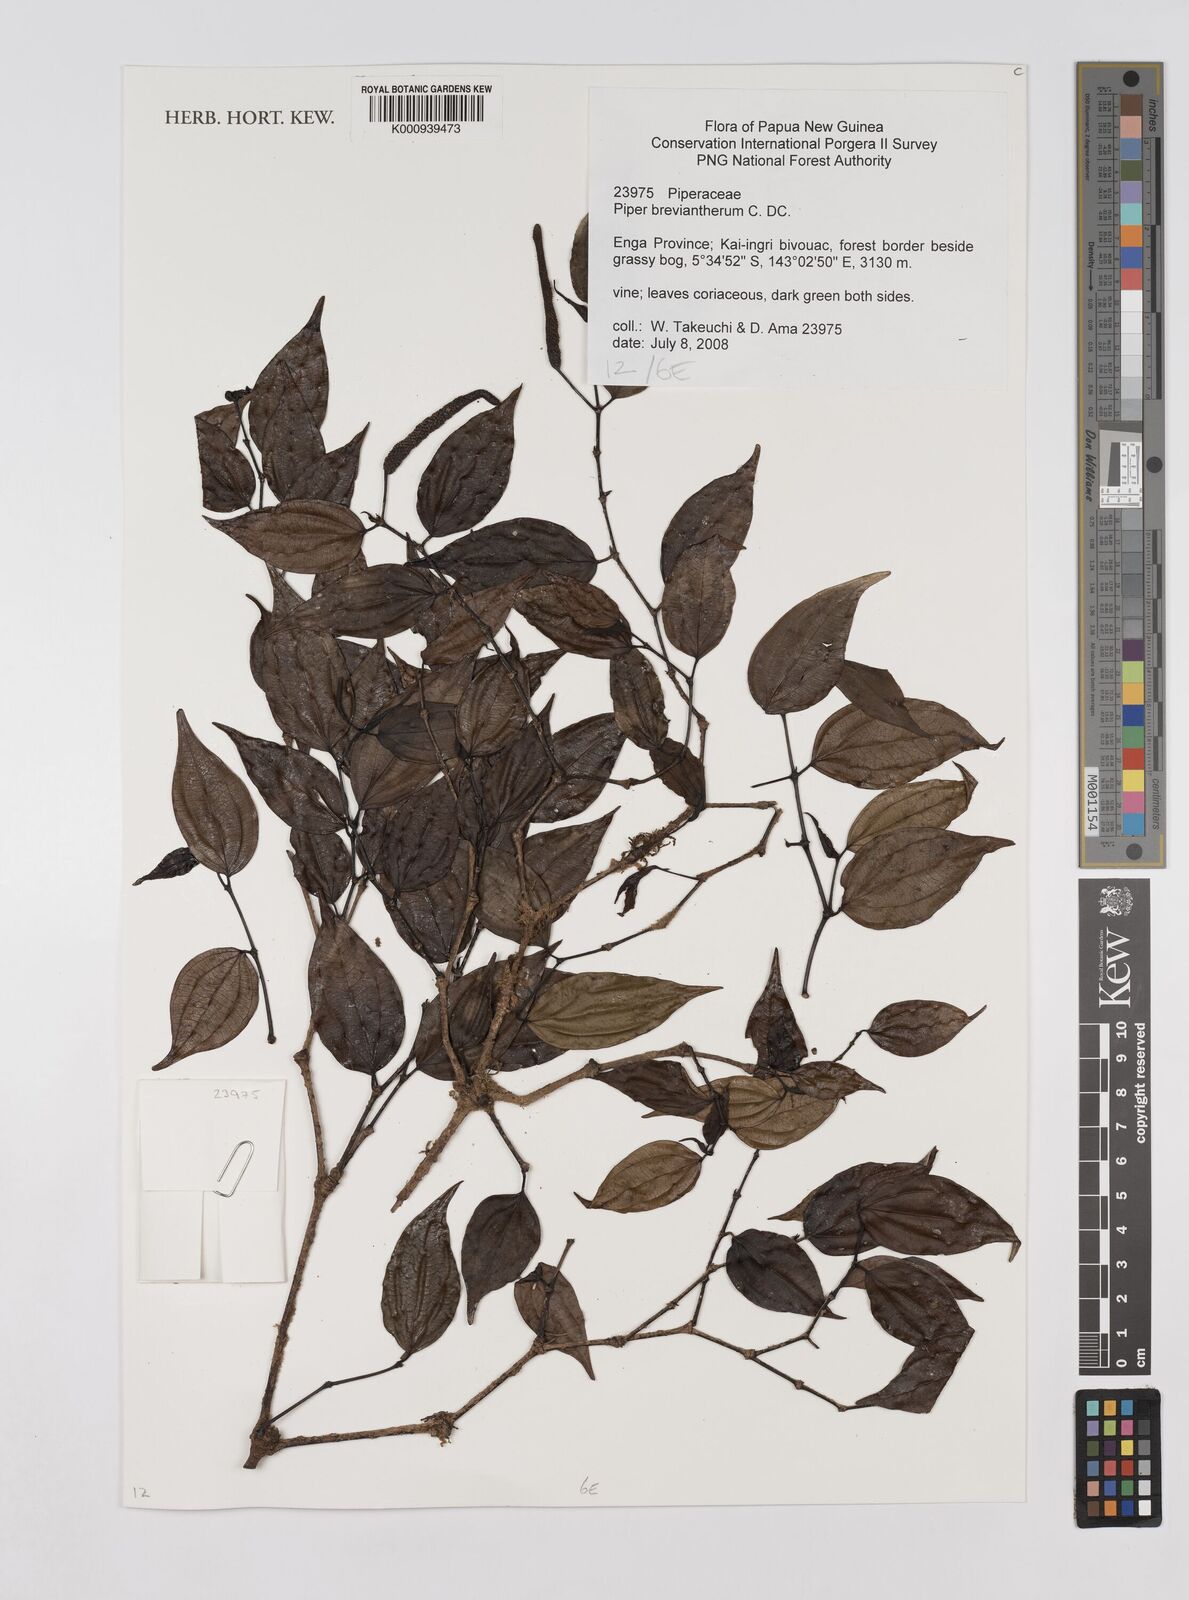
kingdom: Plantae
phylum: Tracheophyta
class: Magnoliopsida
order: Piperales
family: Piperaceae
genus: Piper
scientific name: Piper macropiper
